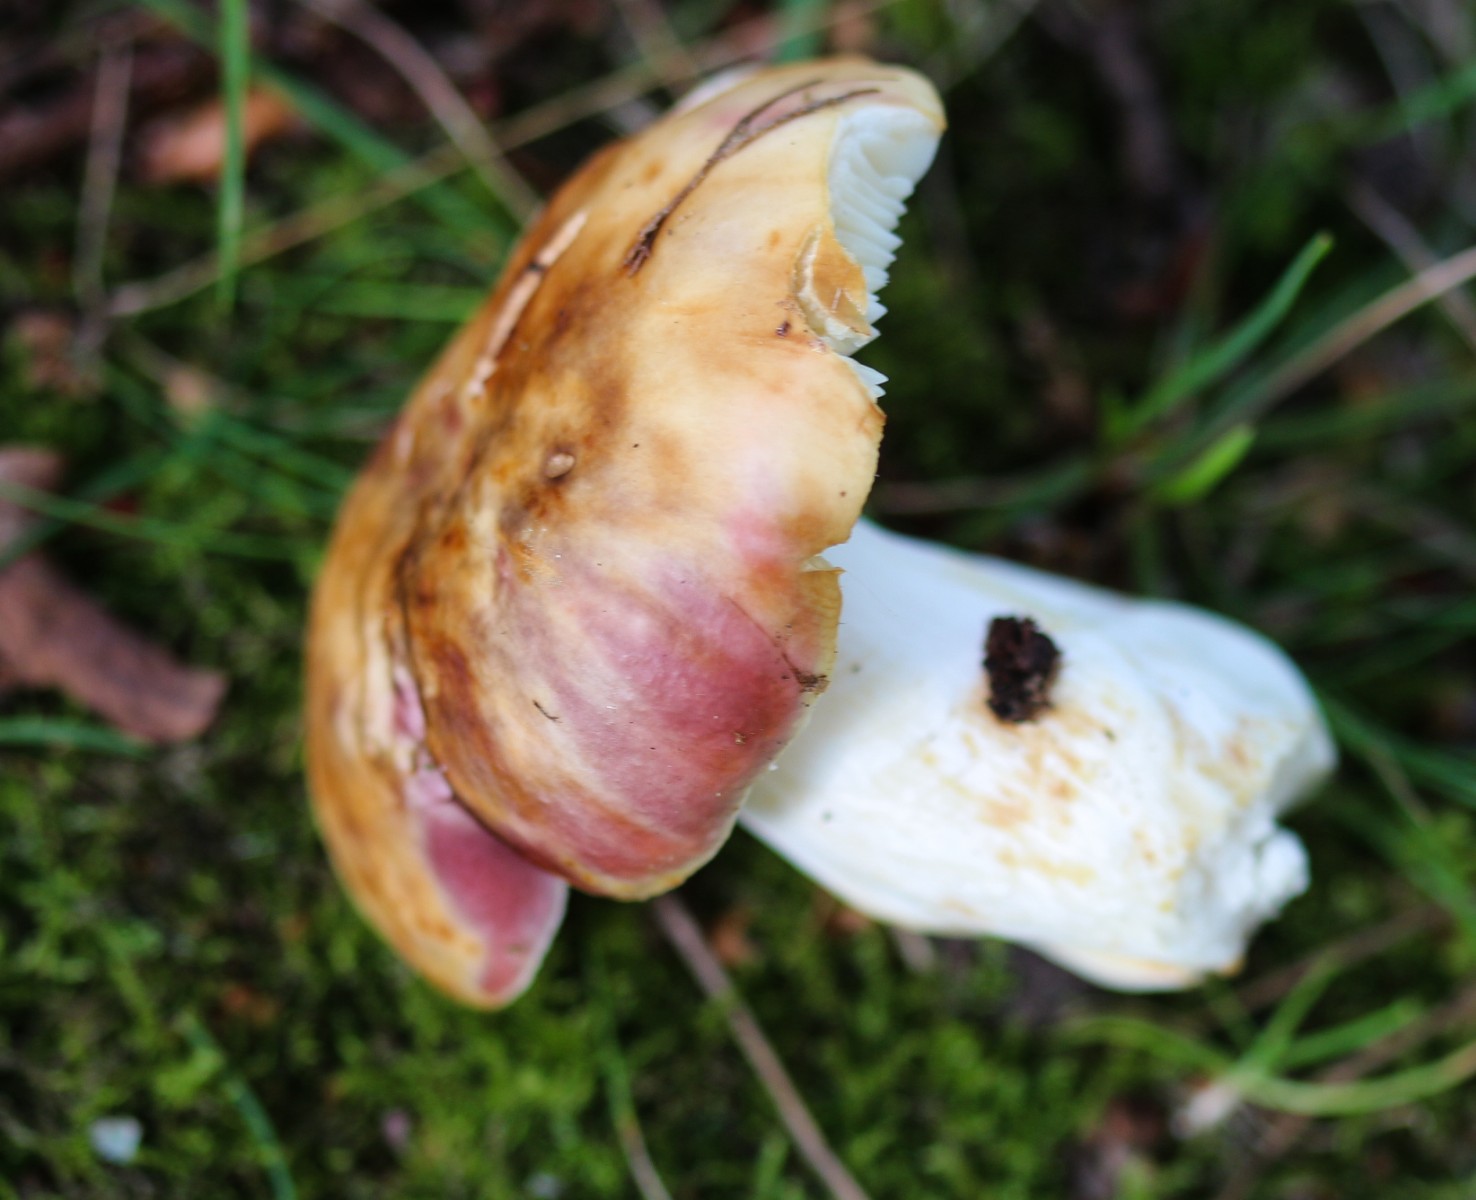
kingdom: Fungi
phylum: Basidiomycota
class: Agaricomycetes
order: Russulales
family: Russulaceae
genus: Russula
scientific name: Russula
